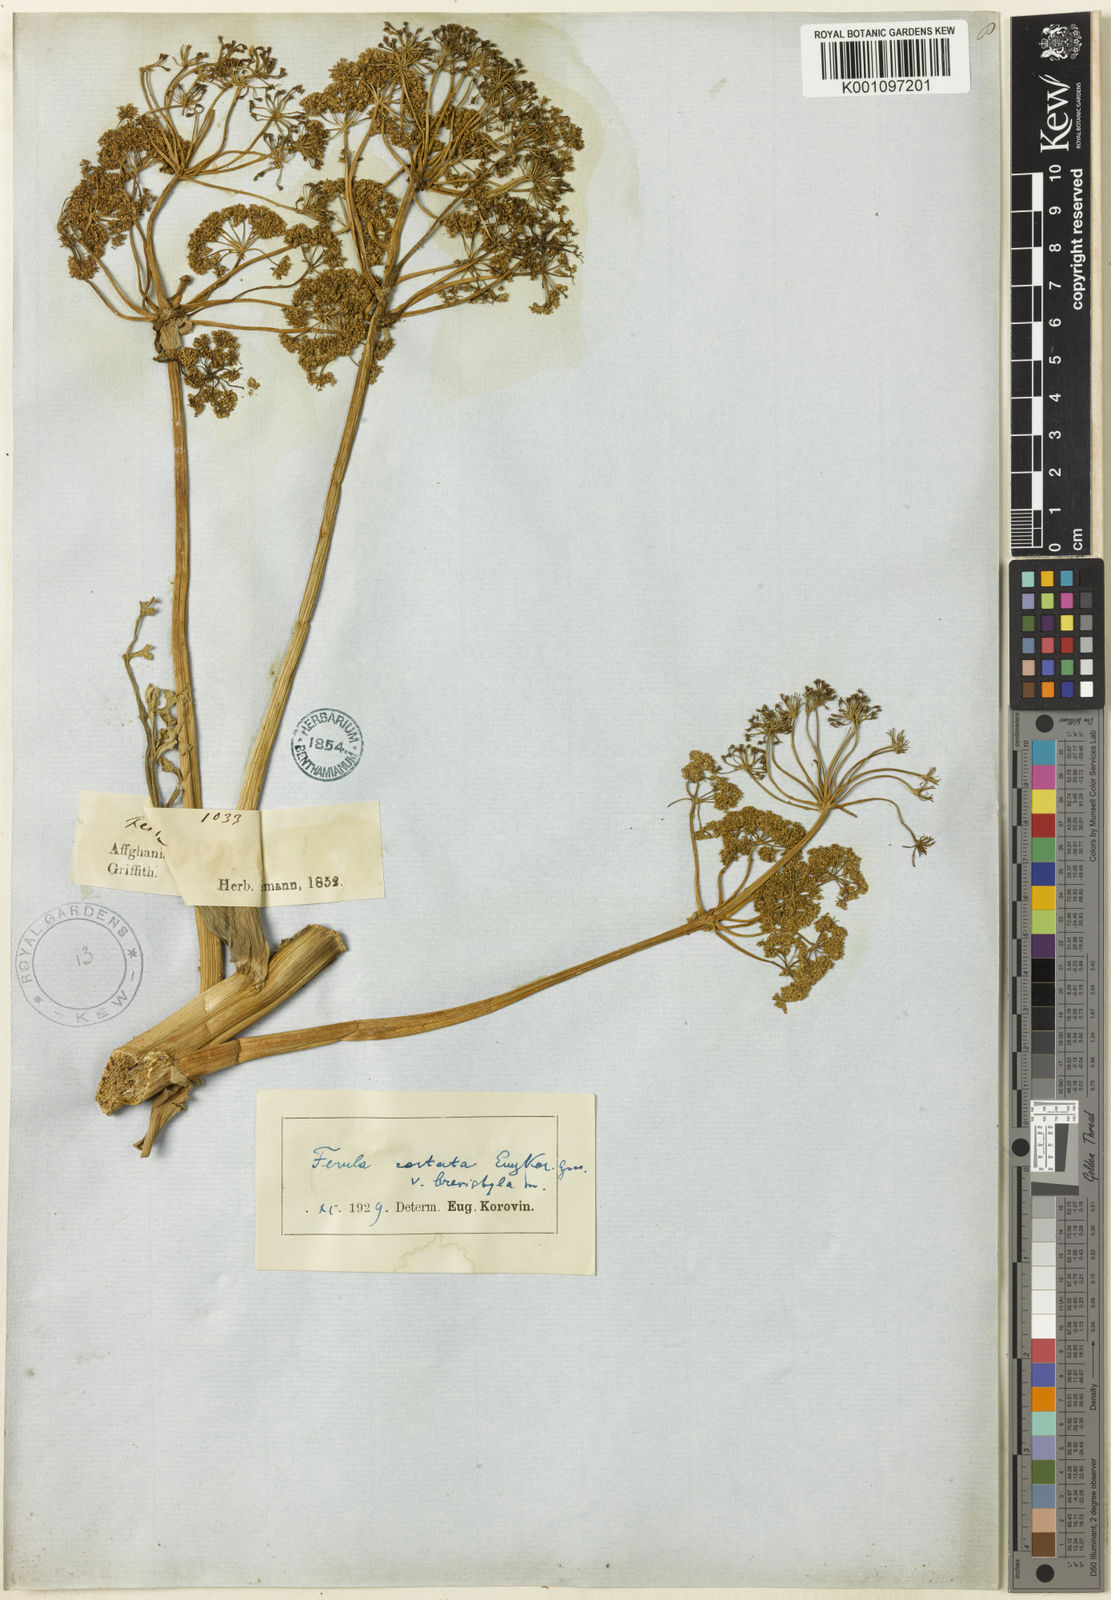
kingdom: Plantae
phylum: Tracheophyta
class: Magnoliopsida
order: Apiales
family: Apiaceae
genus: Ferula
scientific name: Ferula costata
